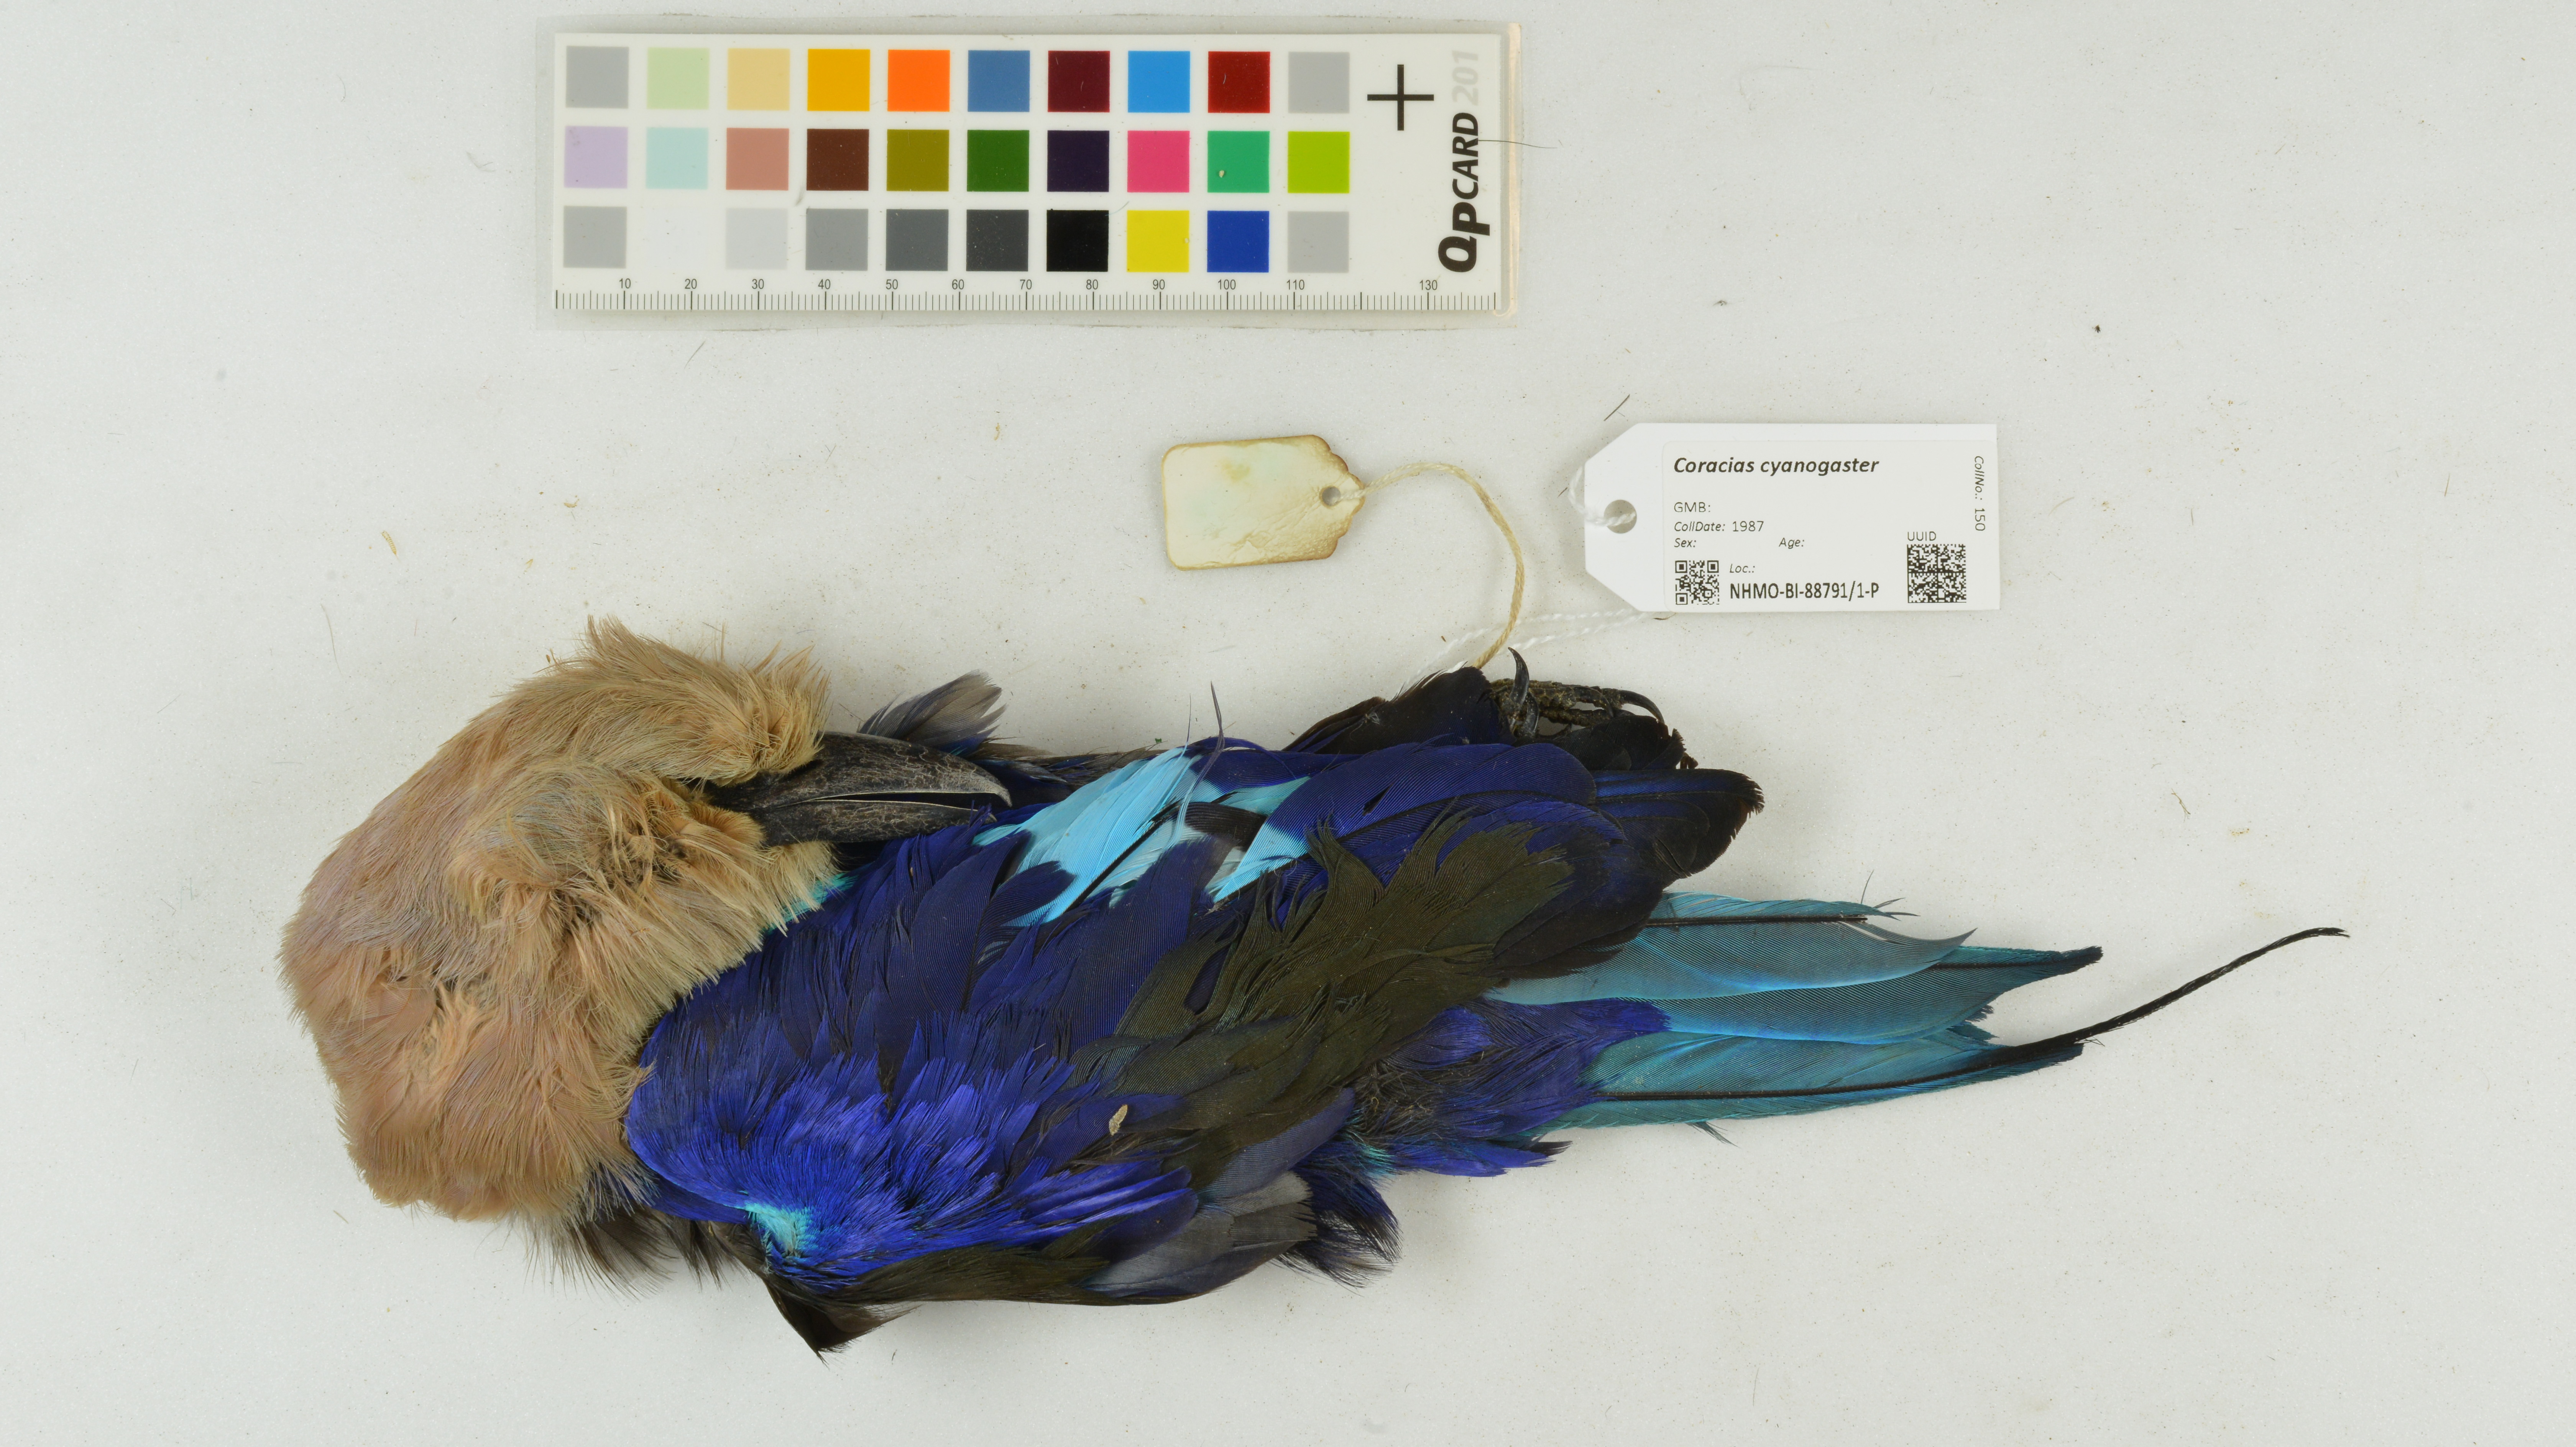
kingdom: Animalia
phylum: Chordata
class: Aves
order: Coraciiformes
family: Coraciidae
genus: Coracias
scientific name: Coracias cyanogaster
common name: Blue-bellied roller
